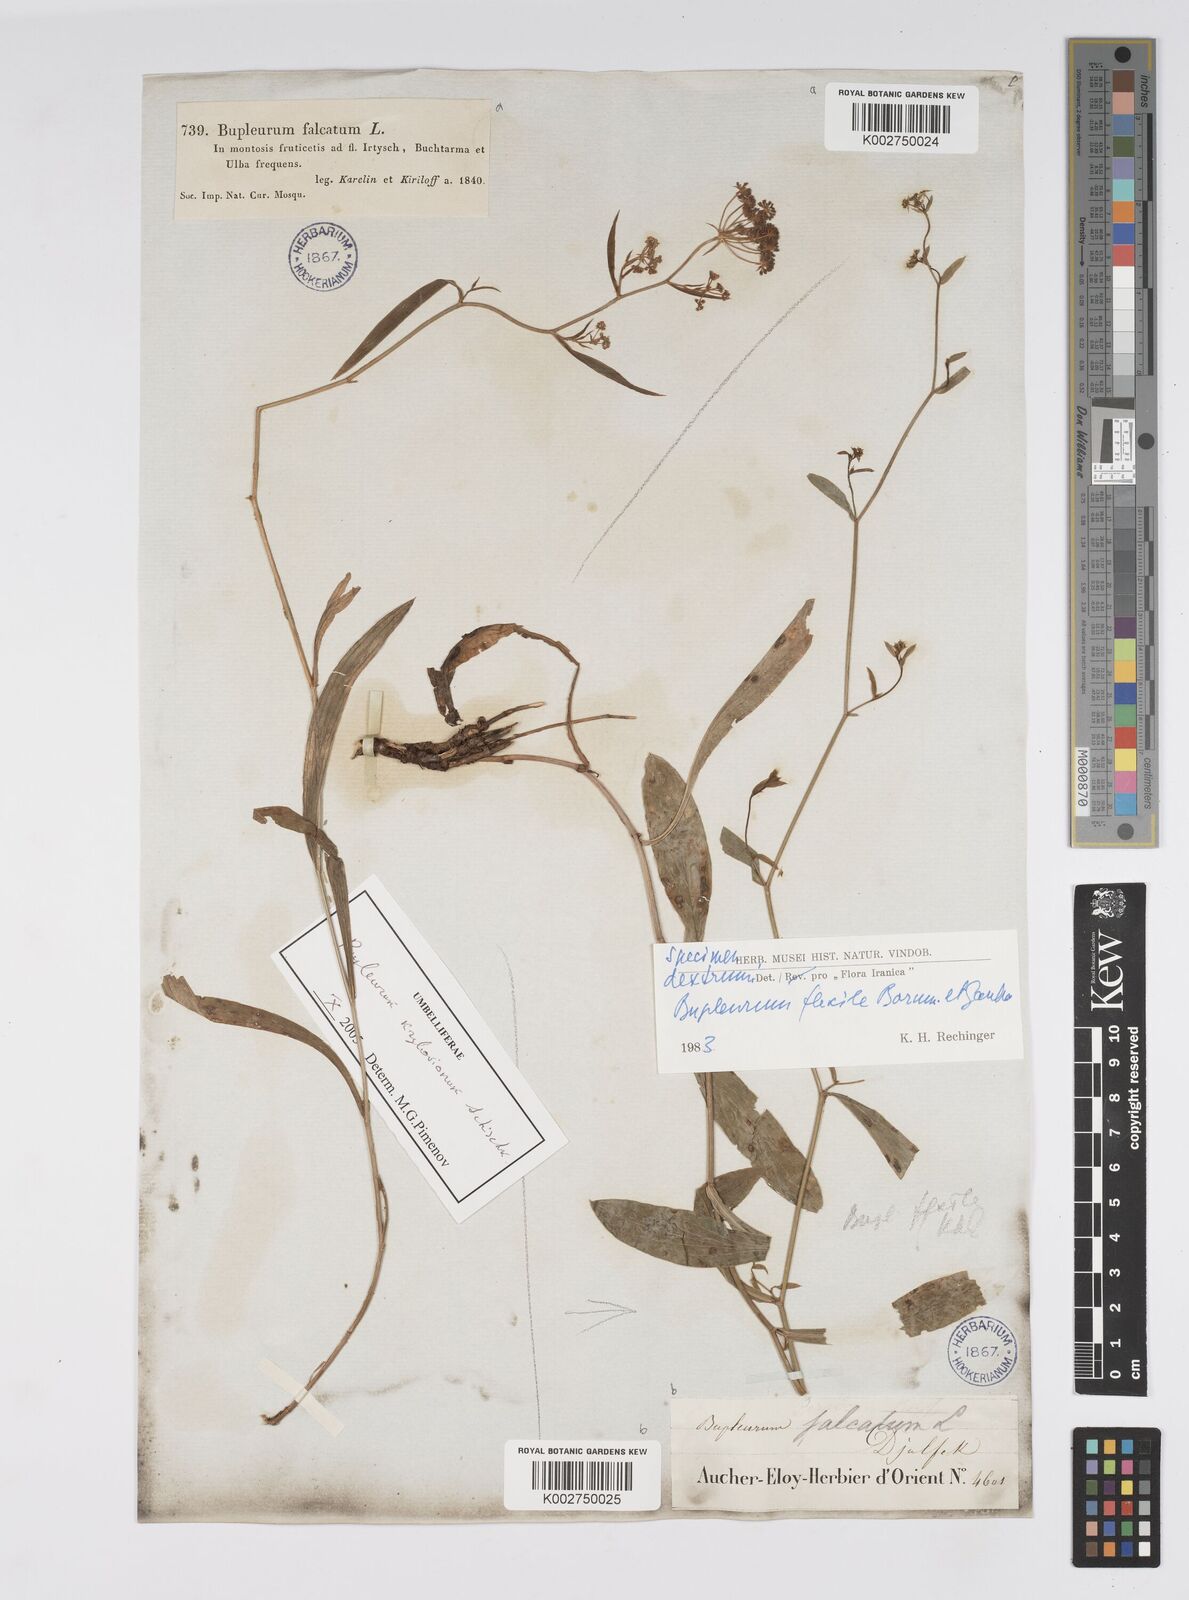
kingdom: Plantae
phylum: Tracheophyta
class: Magnoliopsida
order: Apiales
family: Apiaceae
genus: Bupleurum
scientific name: Bupleurum flexile
